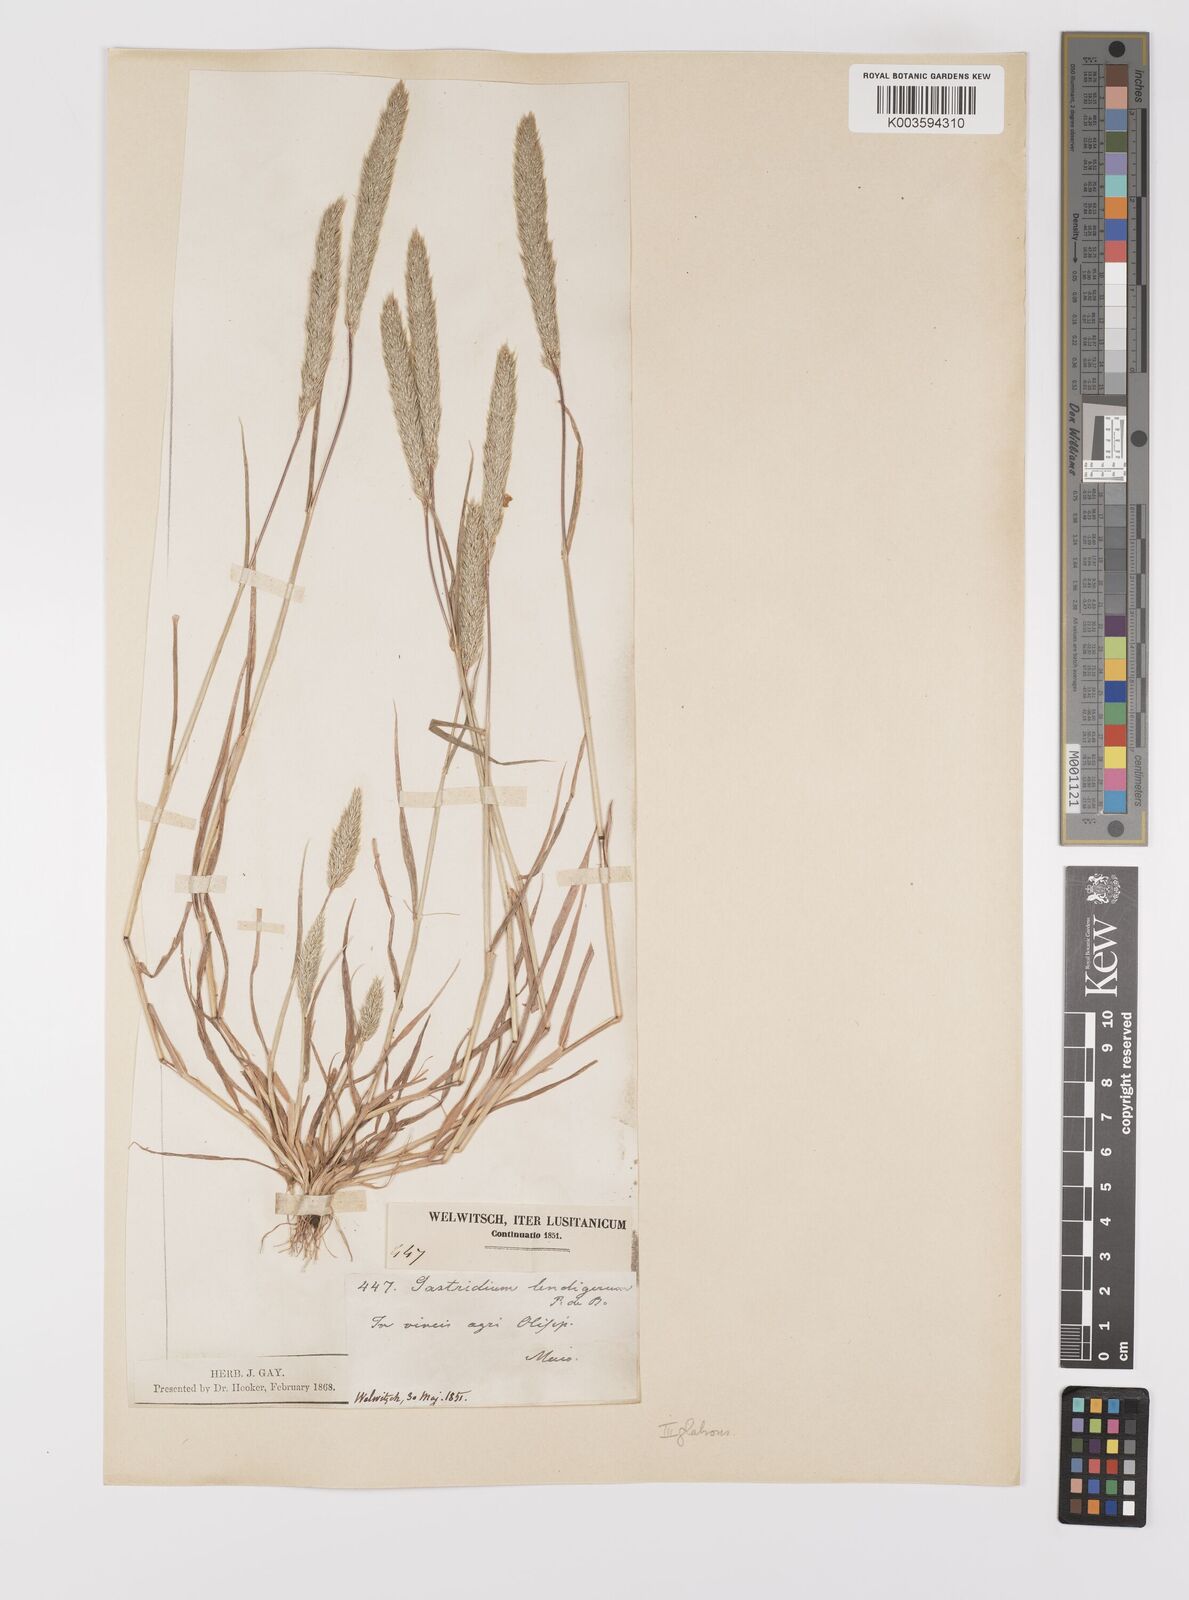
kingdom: Plantae
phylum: Tracheophyta
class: Liliopsida
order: Poales
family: Poaceae
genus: Gastridium
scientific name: Gastridium ventricosum
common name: Nit-grass
